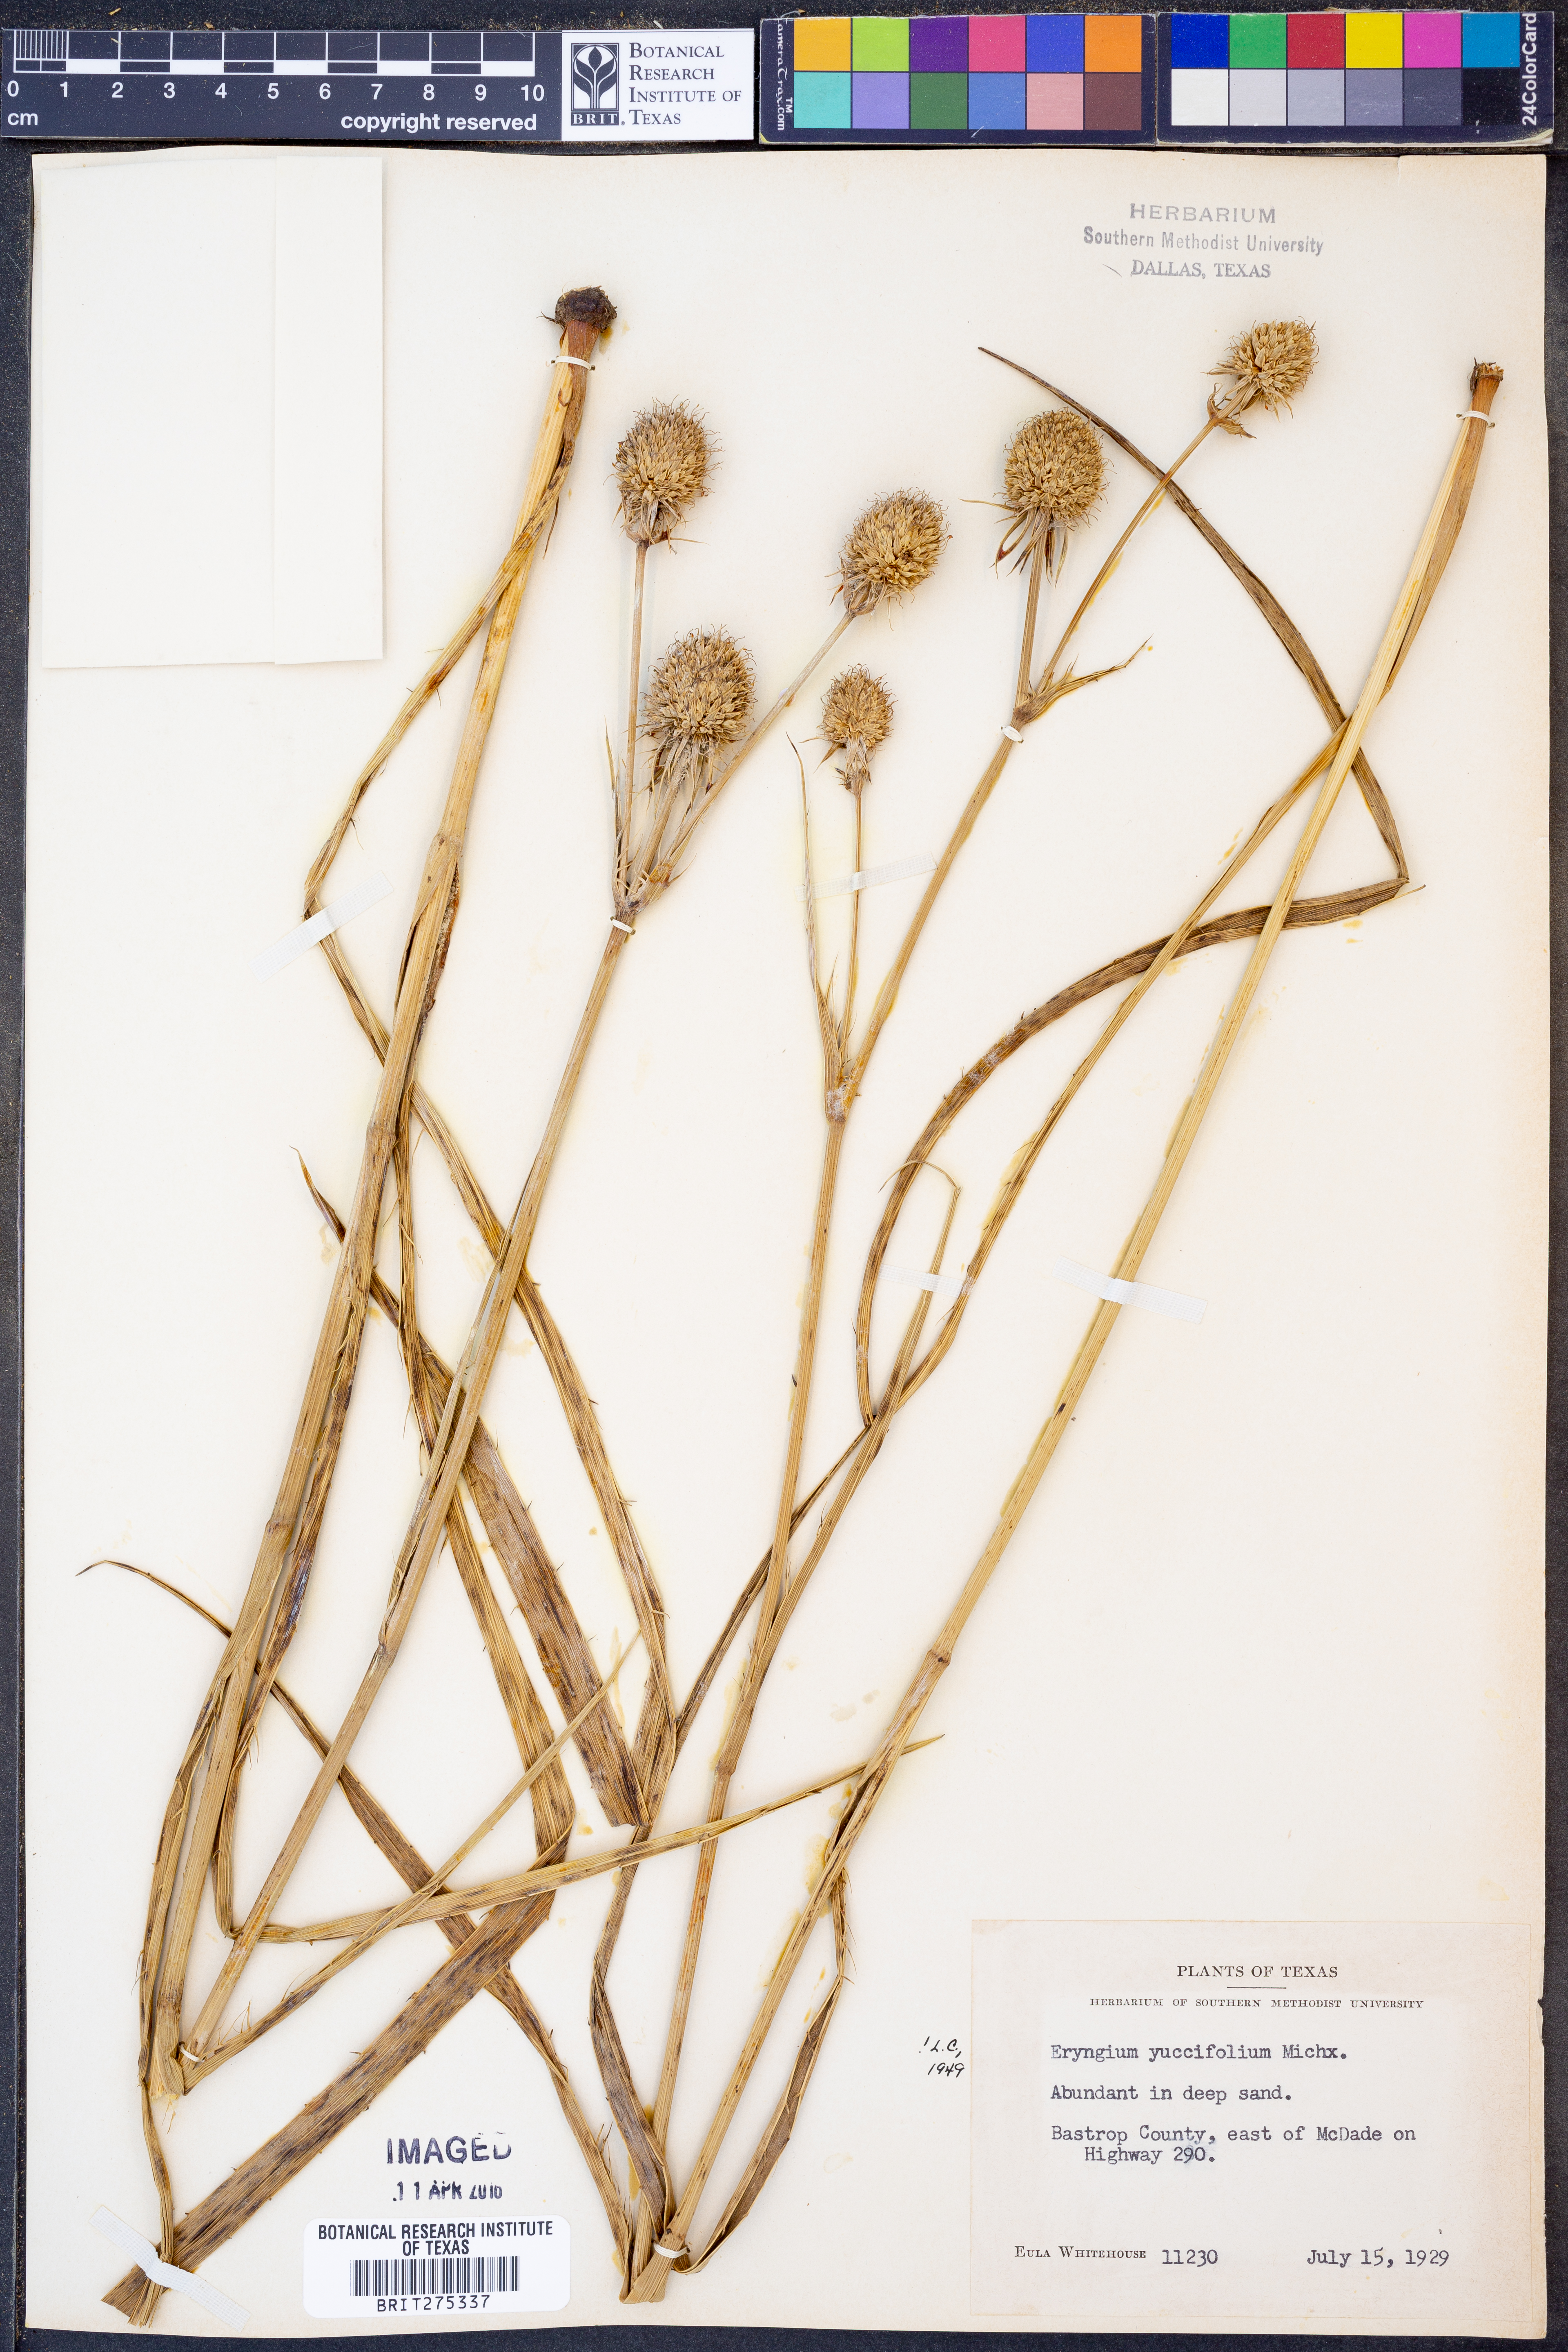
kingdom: Plantae
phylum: Tracheophyta
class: Magnoliopsida
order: Apiales
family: Apiaceae
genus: Eryngium
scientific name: Eryngium yuccifolium
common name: Button eryngo
